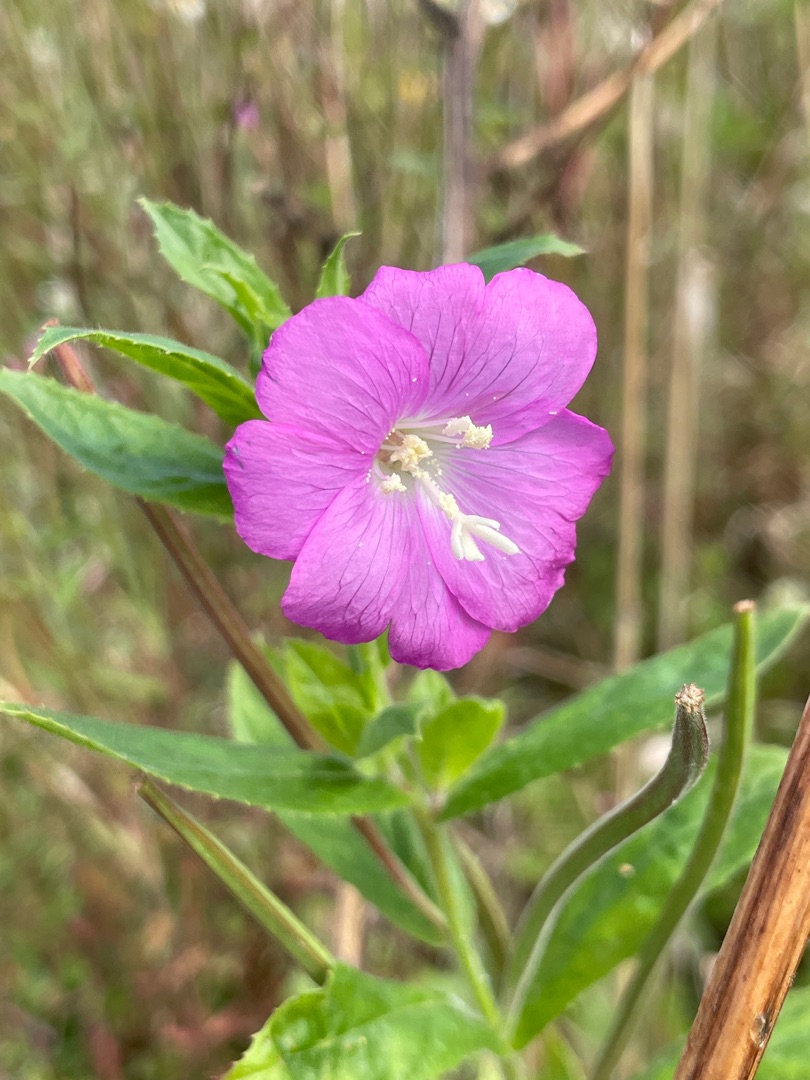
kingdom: Plantae
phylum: Tracheophyta
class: Magnoliopsida
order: Myrtales
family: Onagraceae
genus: Epilobium
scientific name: Epilobium hirsutum
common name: Lådden dueurt
